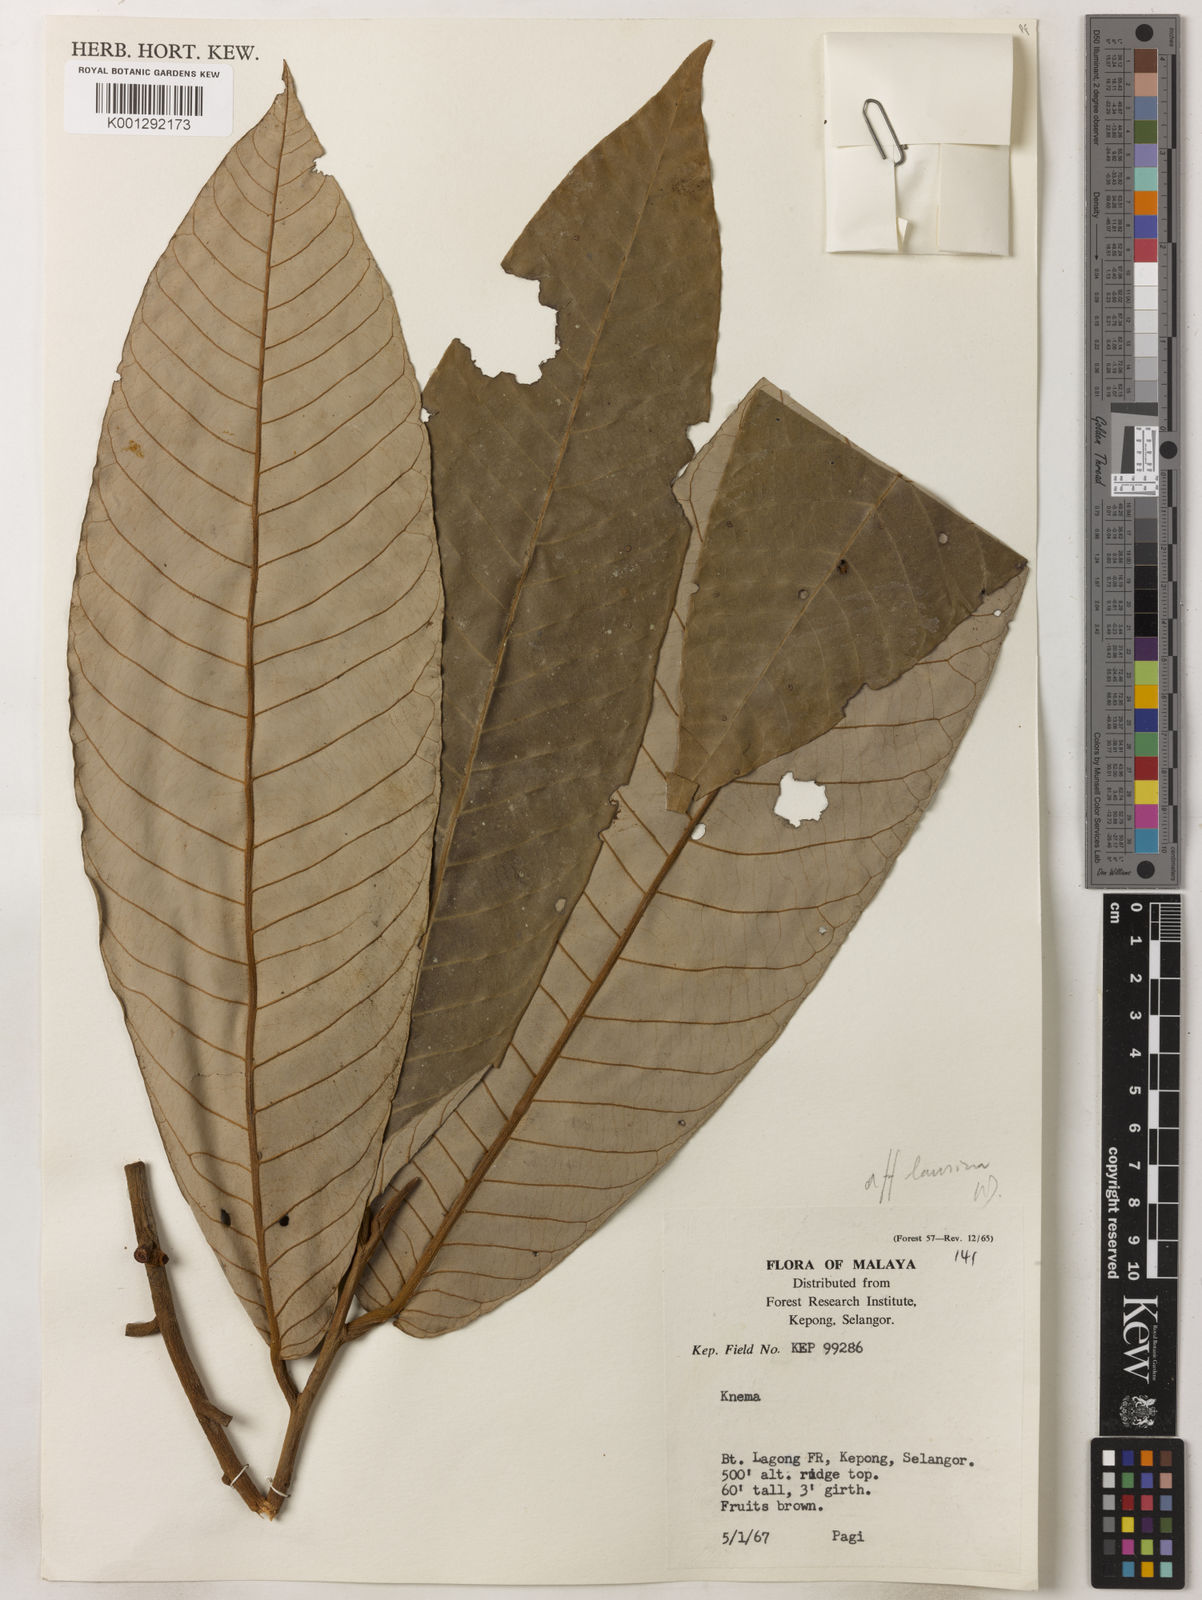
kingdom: Plantae
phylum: Tracheophyta
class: Magnoliopsida
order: Magnoliales
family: Myristicaceae
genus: Knema
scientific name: Knema laurina
